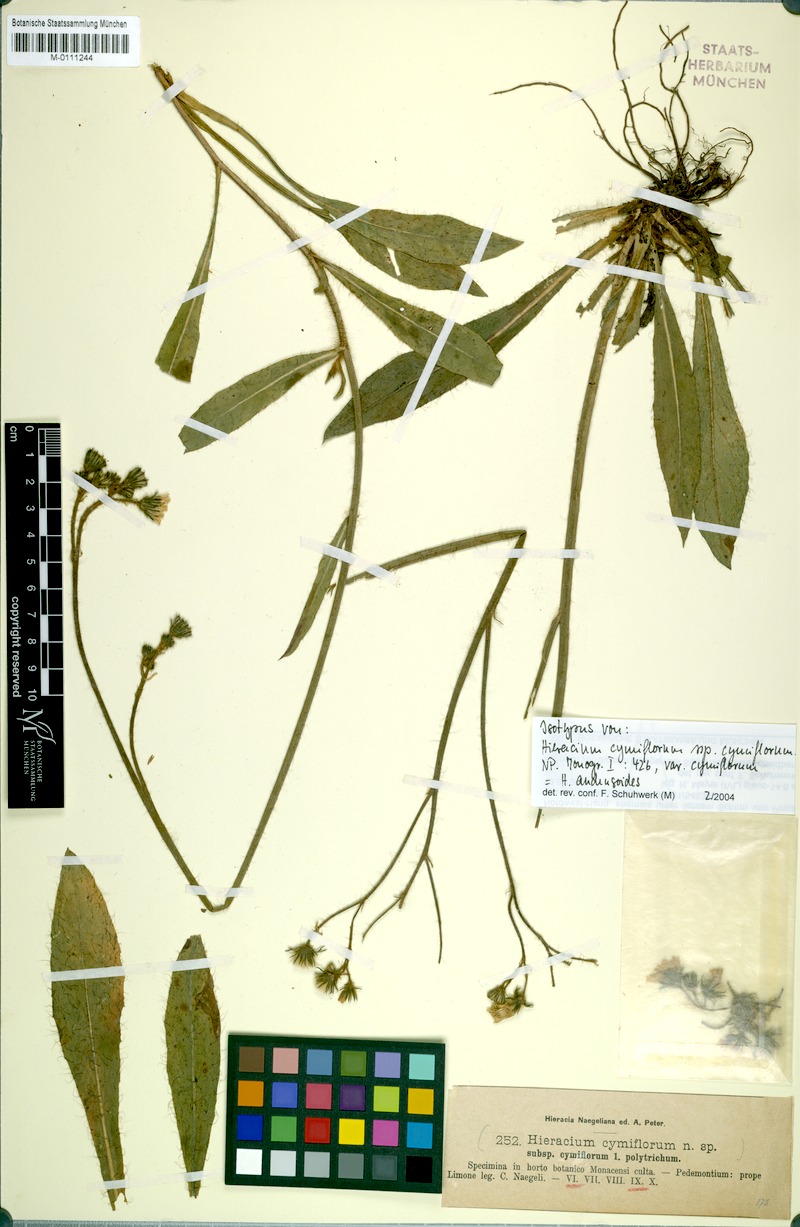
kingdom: Plantae
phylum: Tracheophyta
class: Magnoliopsida
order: Asterales
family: Asteraceae
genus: Pilosella
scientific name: Pilosella cymiflora
